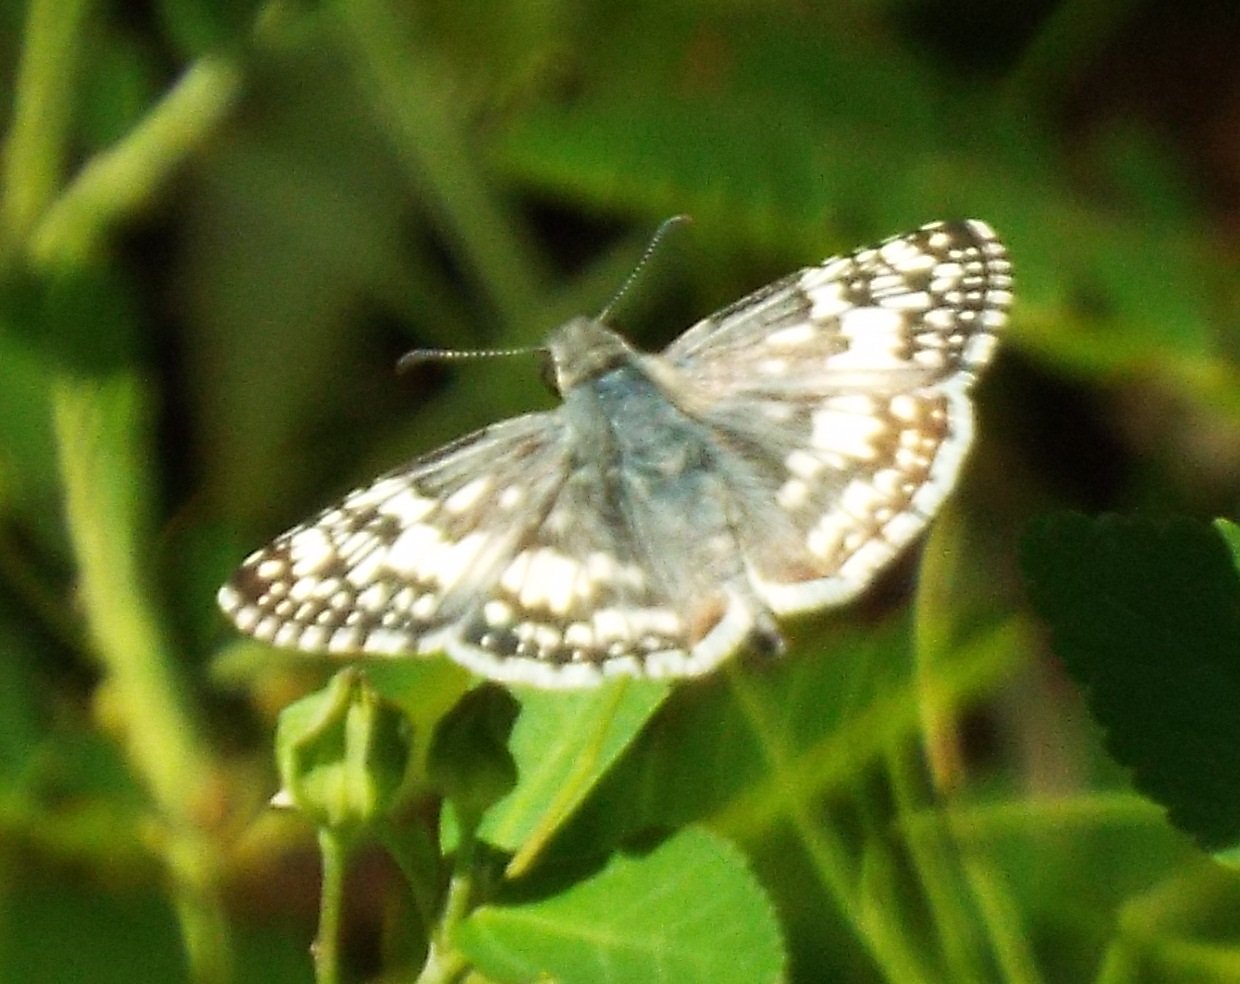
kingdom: Animalia
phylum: Arthropoda
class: Insecta
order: Lepidoptera
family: Hesperiidae
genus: Pyrgus
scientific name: Pyrgus communis
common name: White Checkered-Skipper
